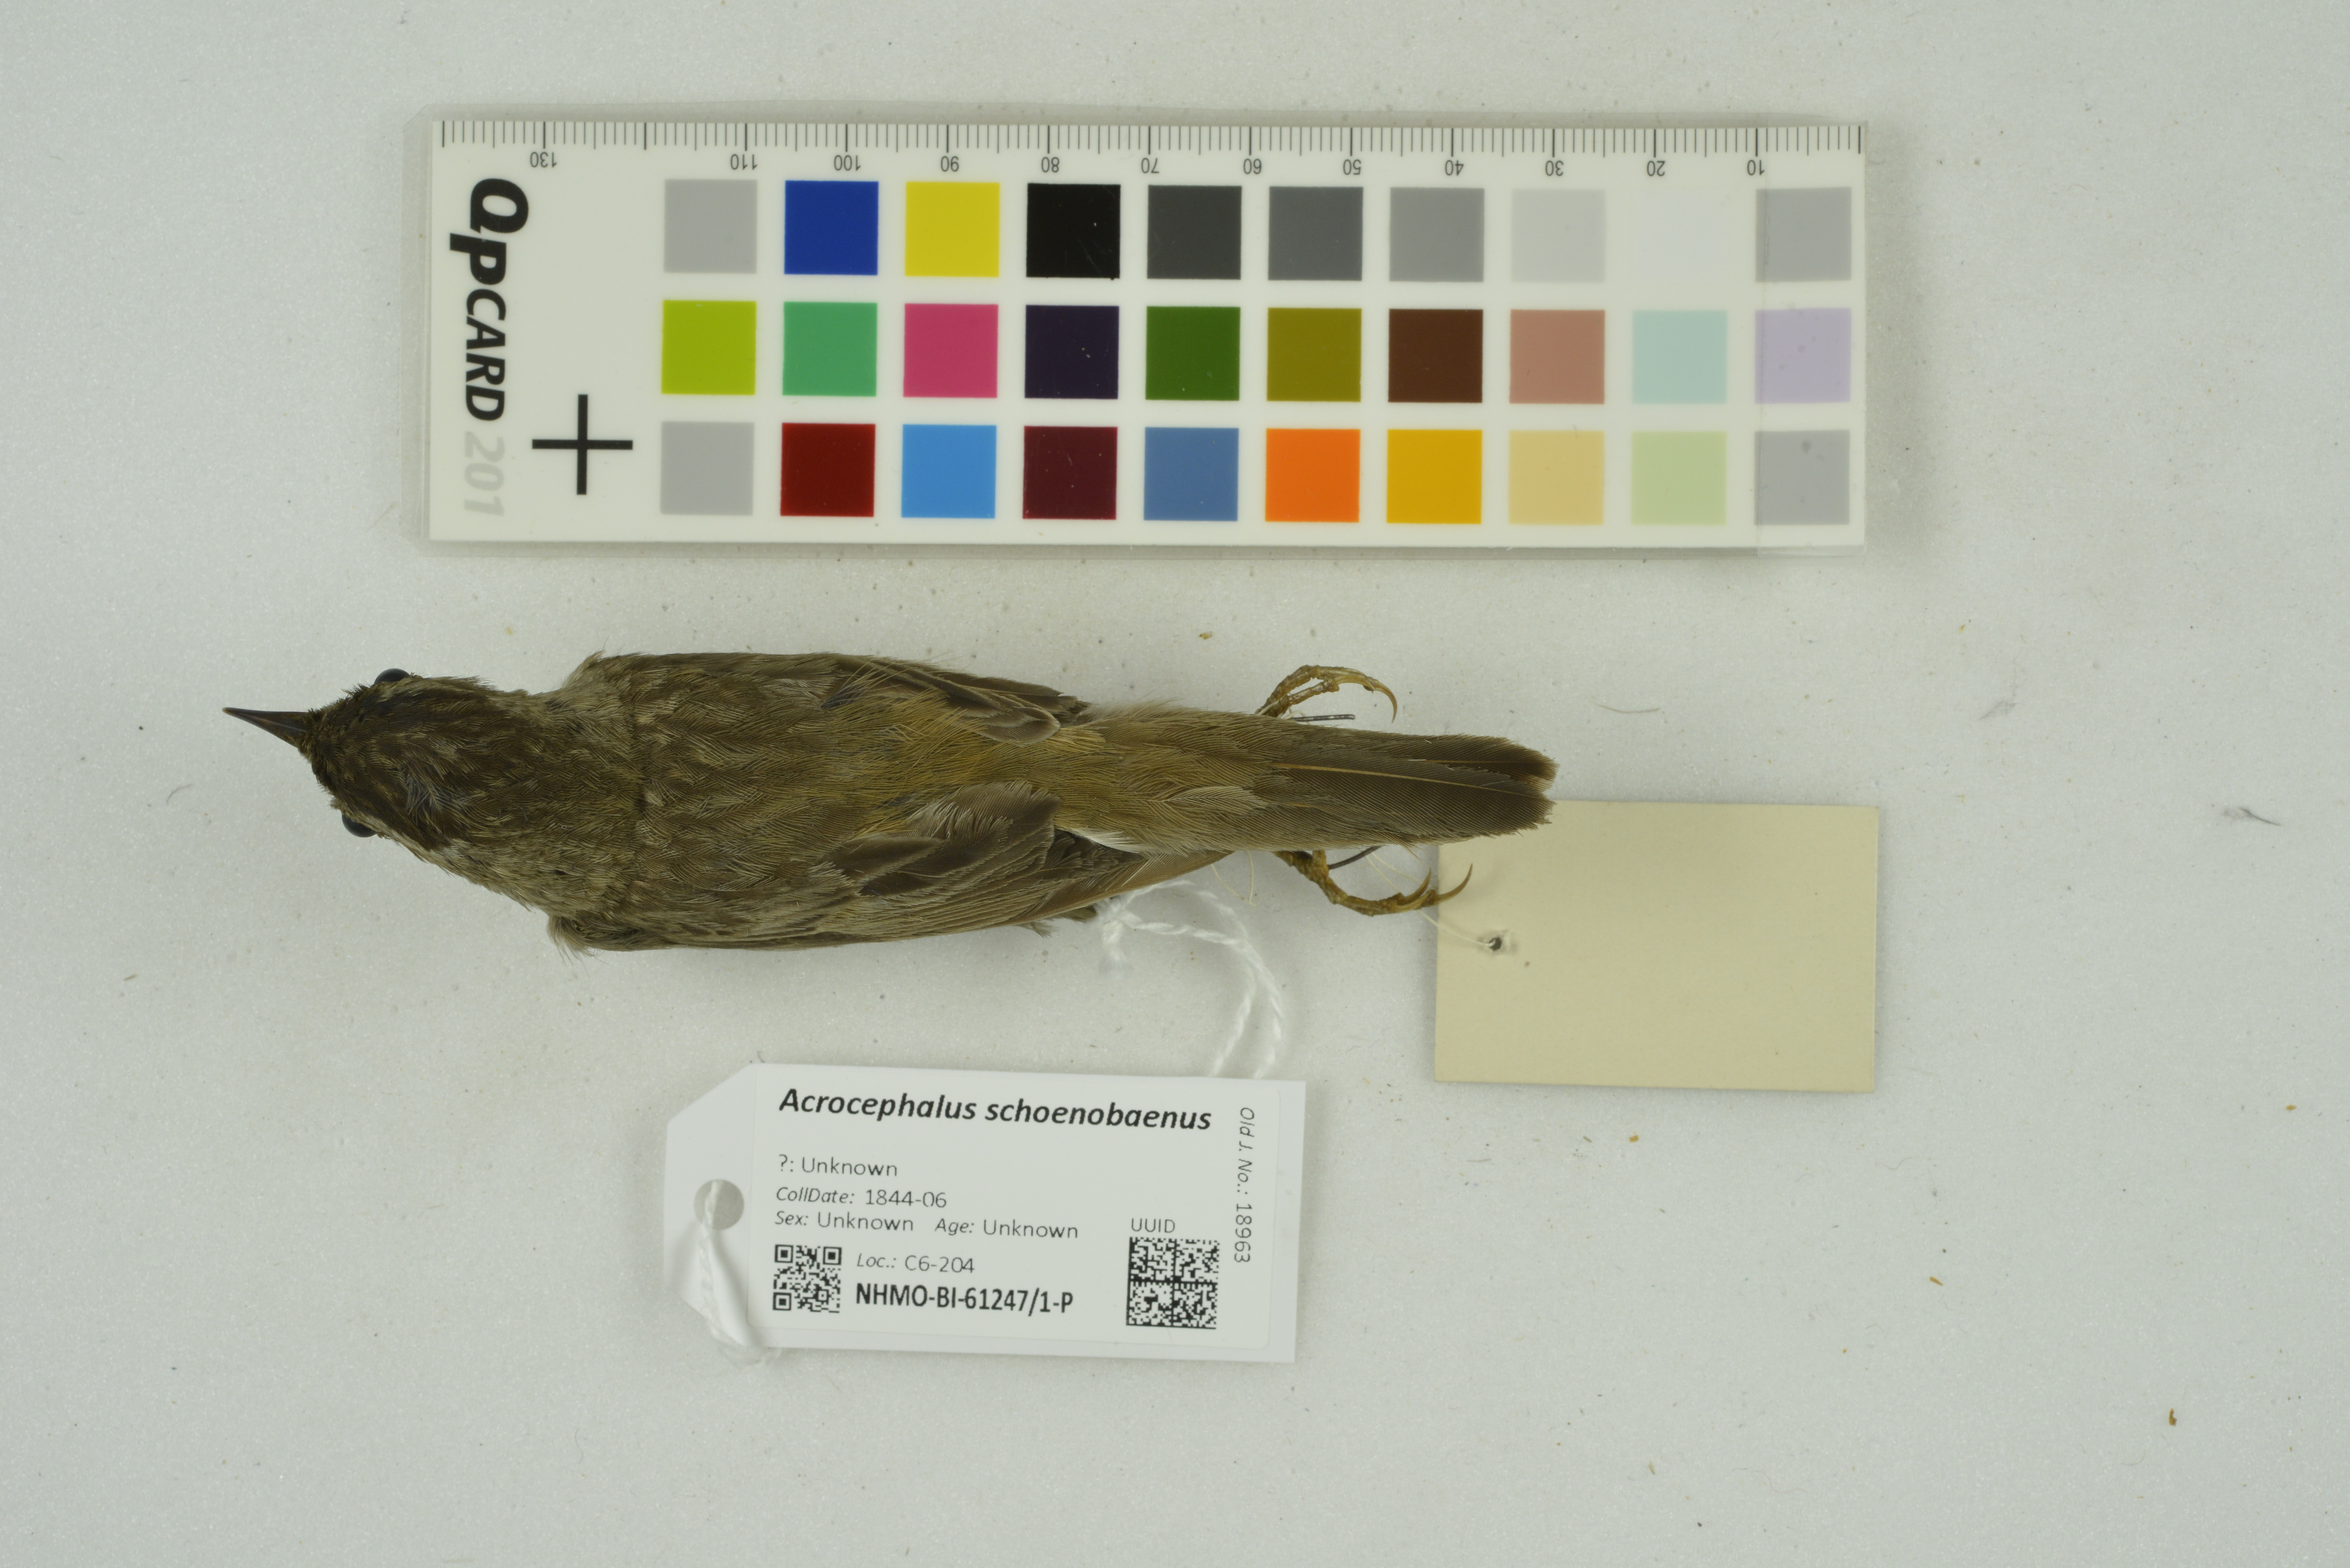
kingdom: Animalia
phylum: Chordata
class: Aves
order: Passeriformes
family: Acrocephalidae
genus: Acrocephalus
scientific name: Acrocephalus schoenobaenus
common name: Sedge warbler
